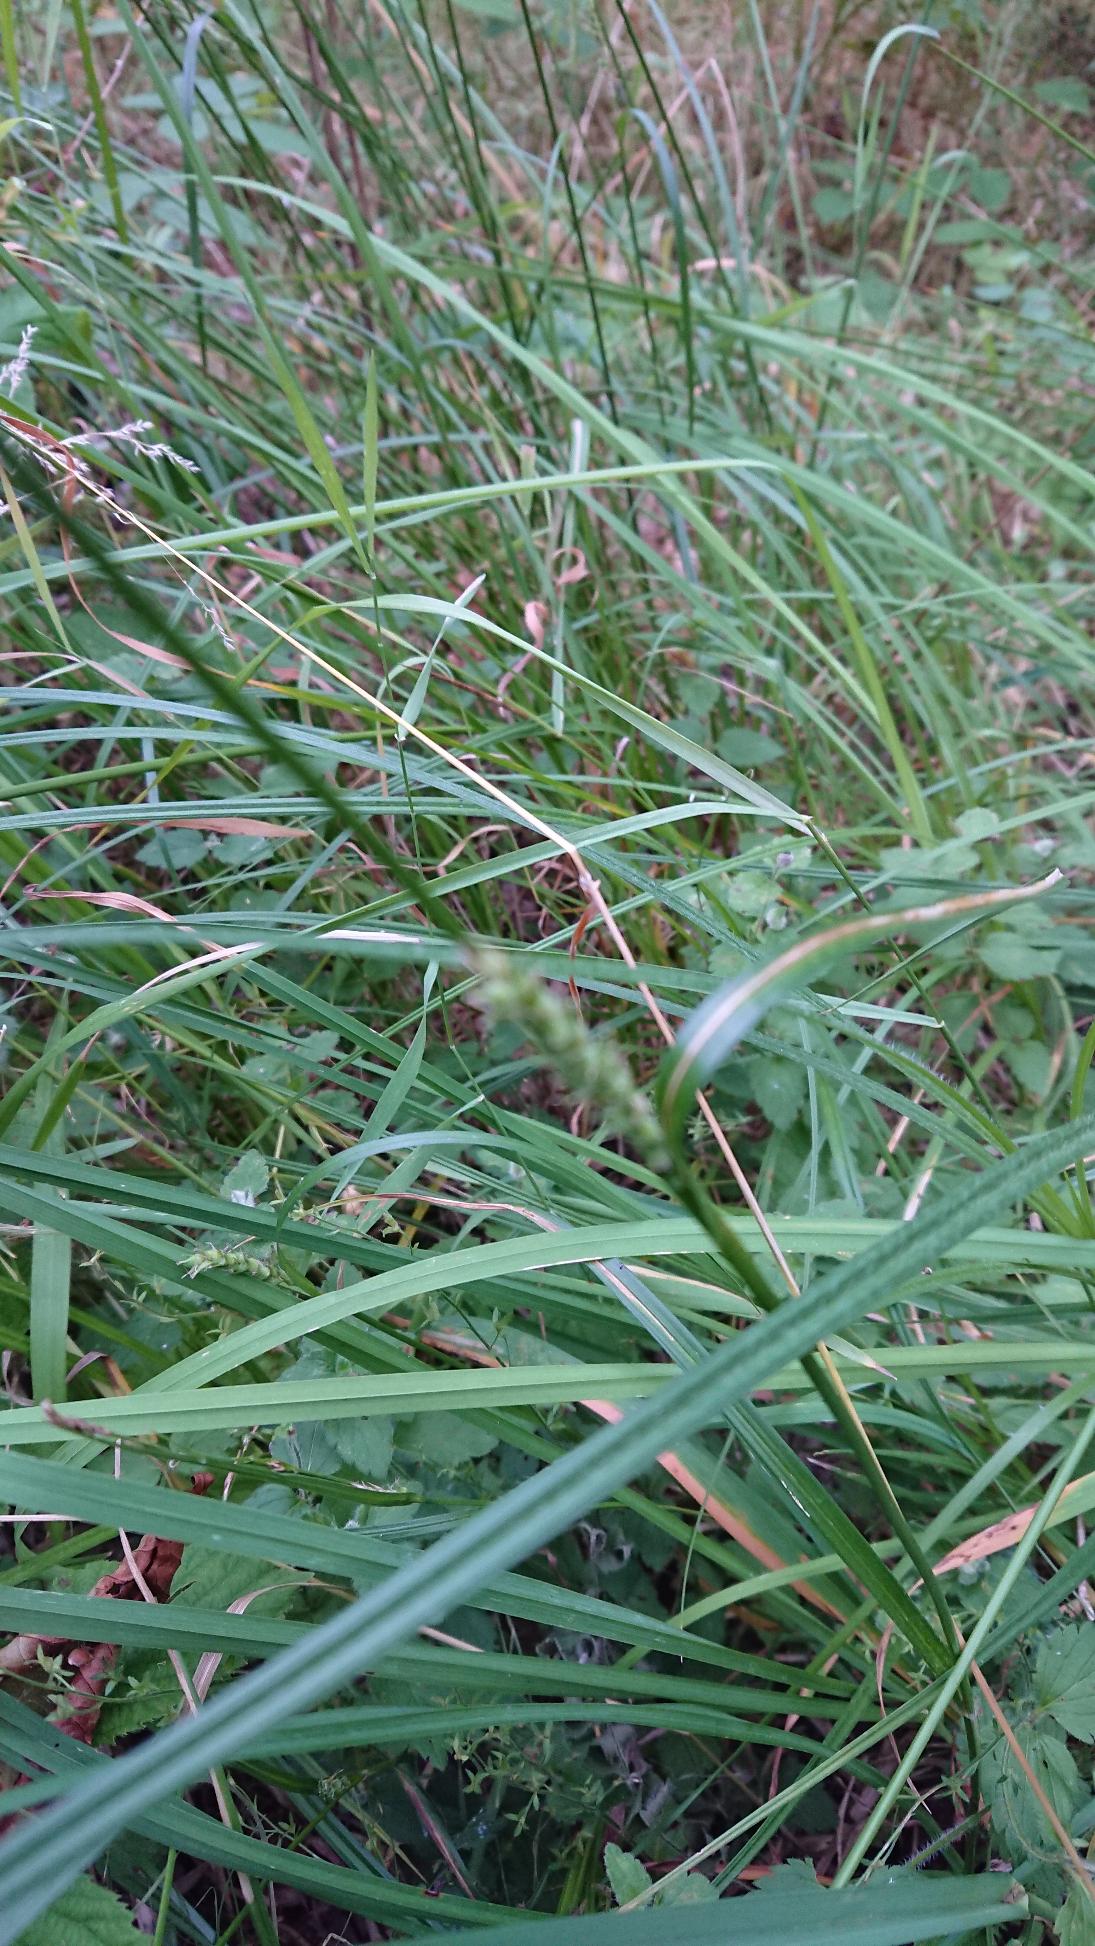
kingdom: Plantae
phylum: Tracheophyta
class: Liliopsida
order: Poales
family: Cyperaceae
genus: Carex
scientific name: Carex hirta
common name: Håret star
